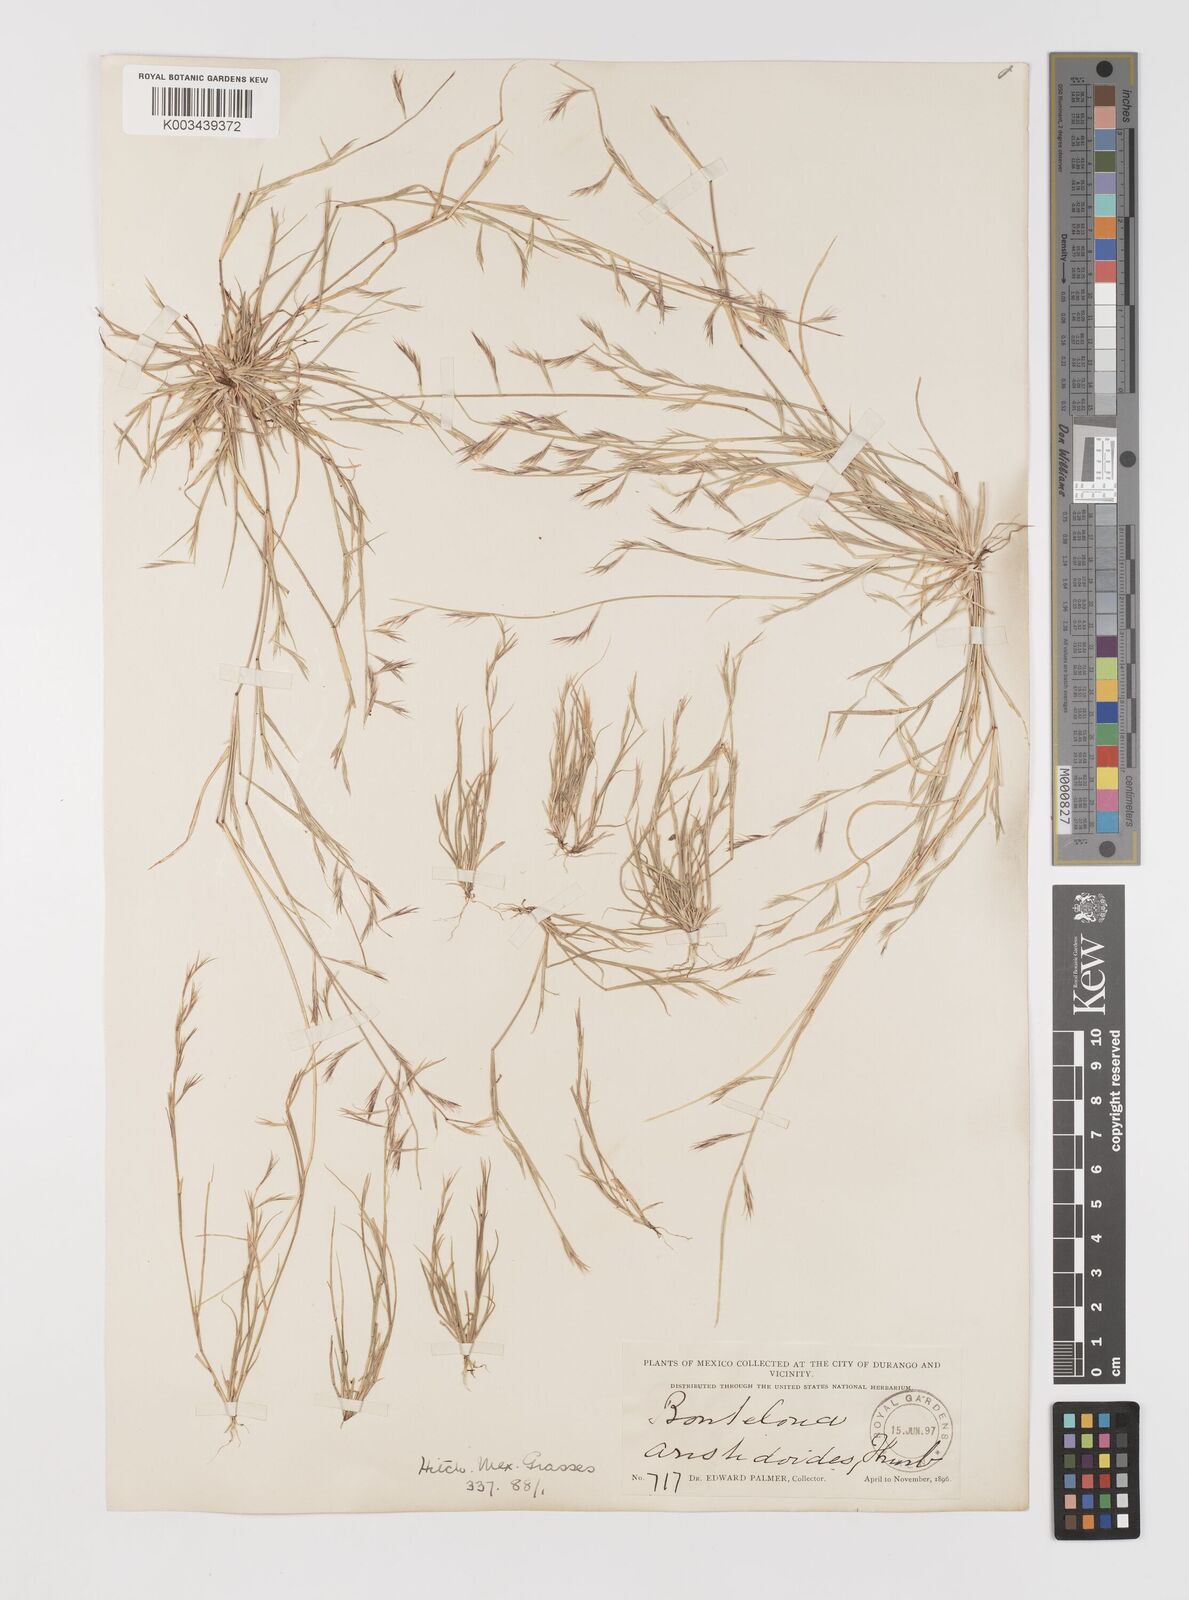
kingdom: Plantae
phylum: Tracheophyta
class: Liliopsida
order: Poales
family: Poaceae
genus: Bouteloua
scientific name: Bouteloua aristidoides
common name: Needle grama
